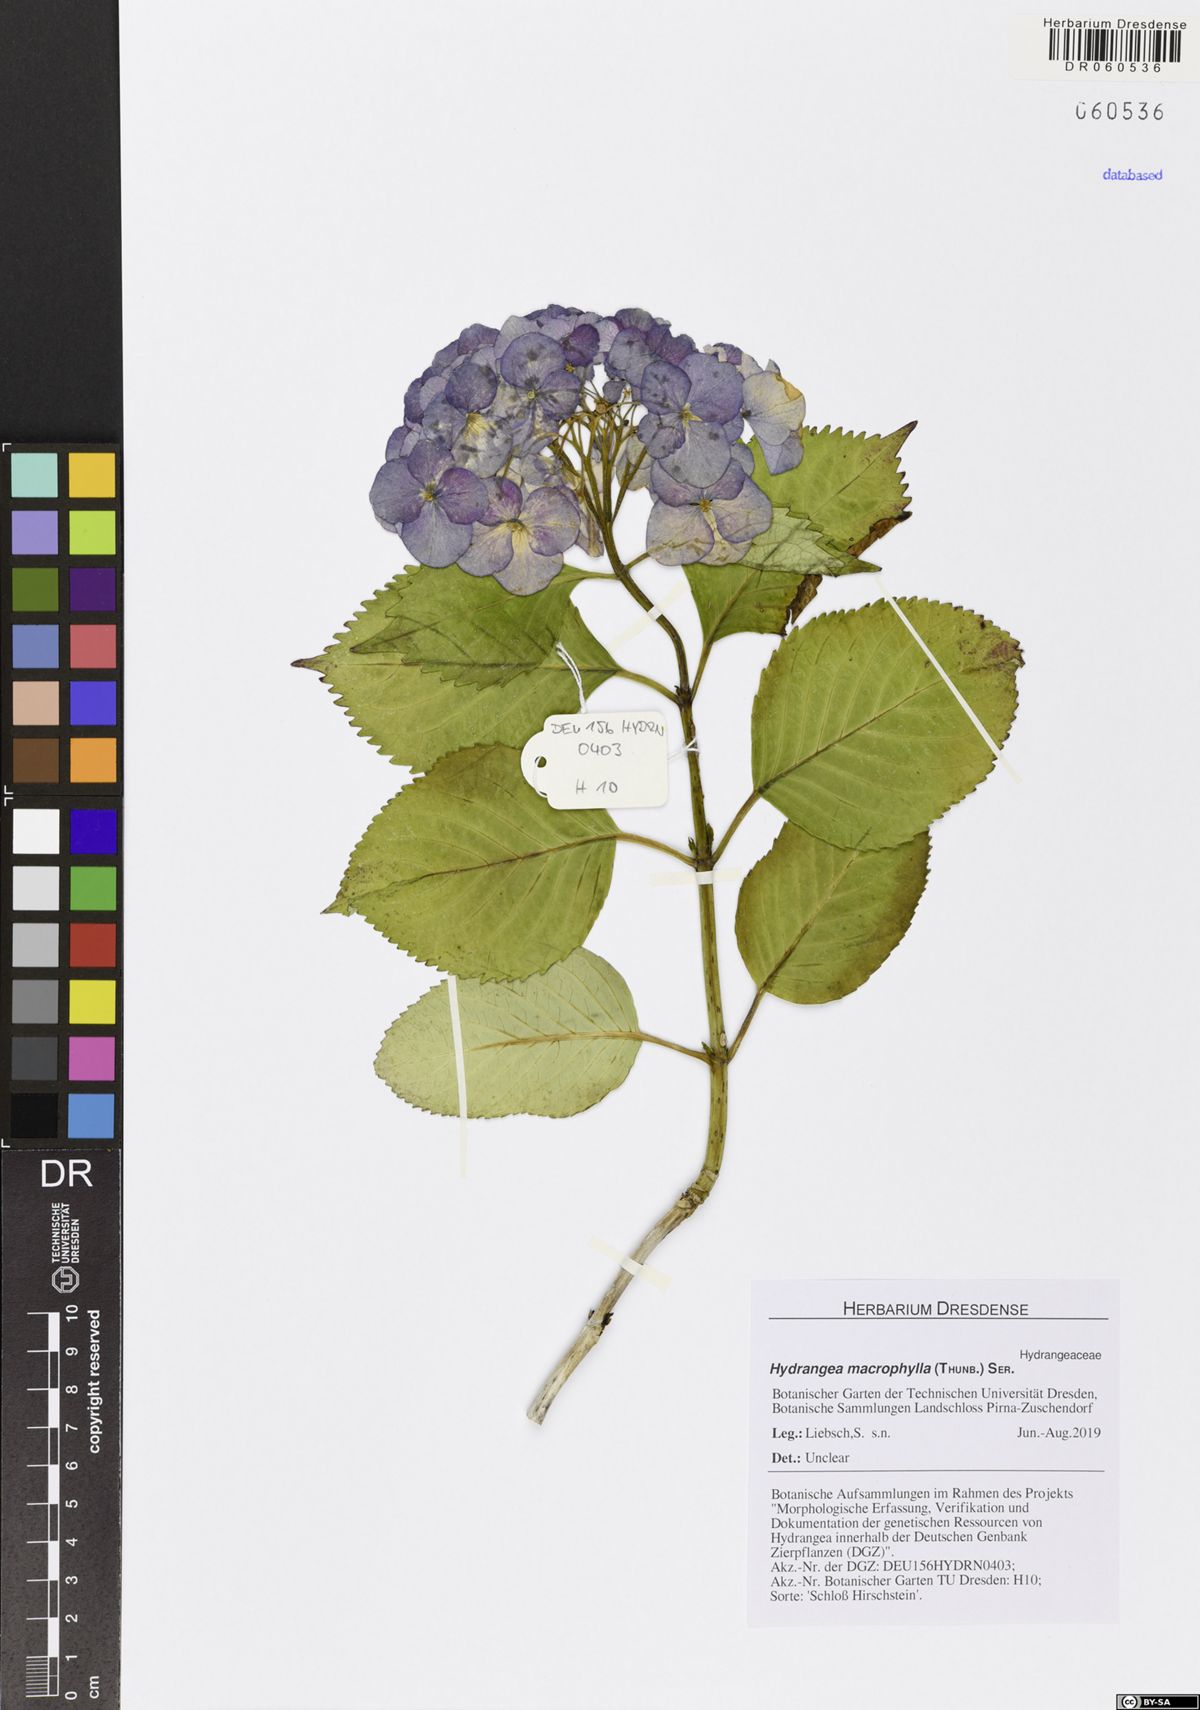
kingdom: Plantae
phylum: Tracheophyta
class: Magnoliopsida
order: Cornales
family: Hydrangeaceae
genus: Hydrangea
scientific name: Hydrangea macrophylla
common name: Hydrangea
